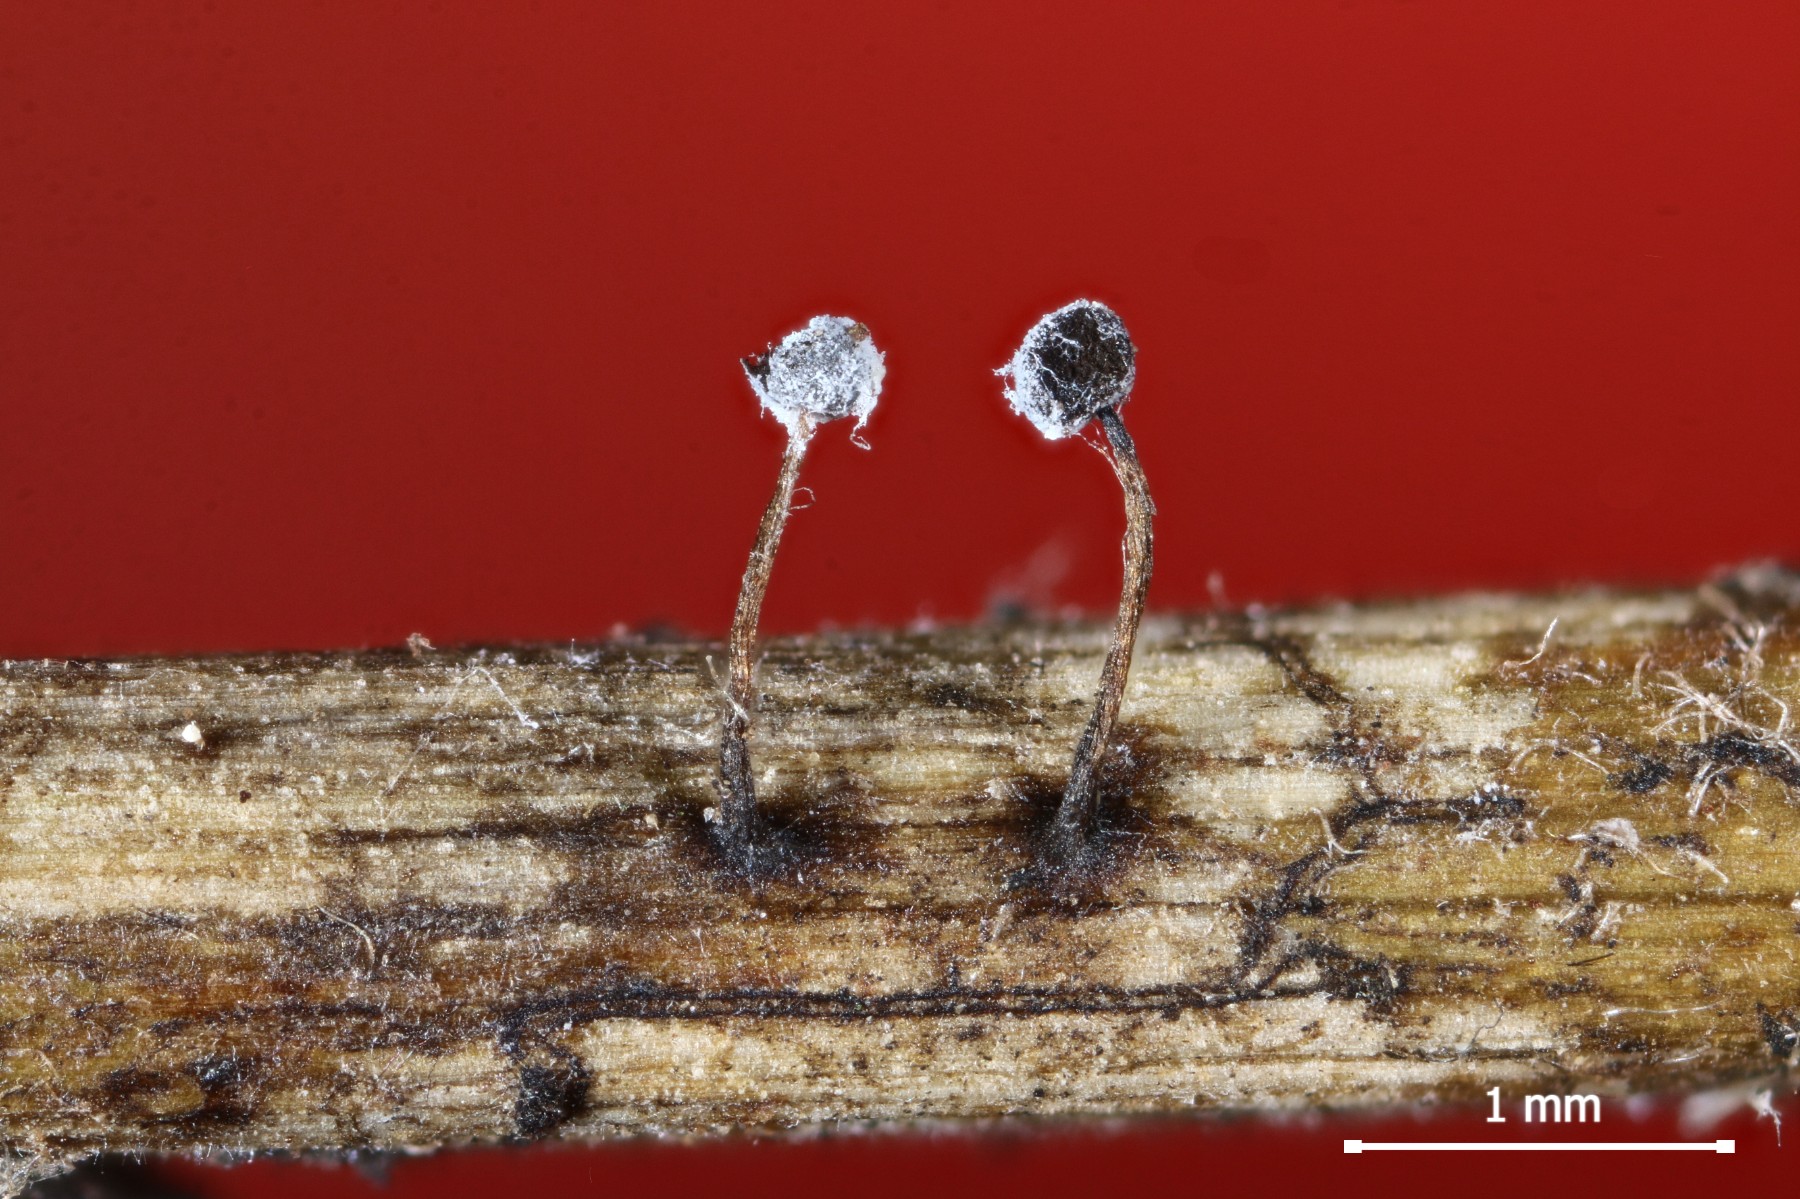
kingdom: Protozoa
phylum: Mycetozoa
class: Myxomycetes
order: Physarales
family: Didymiaceae
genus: Didymium
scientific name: Didymium bahiense
